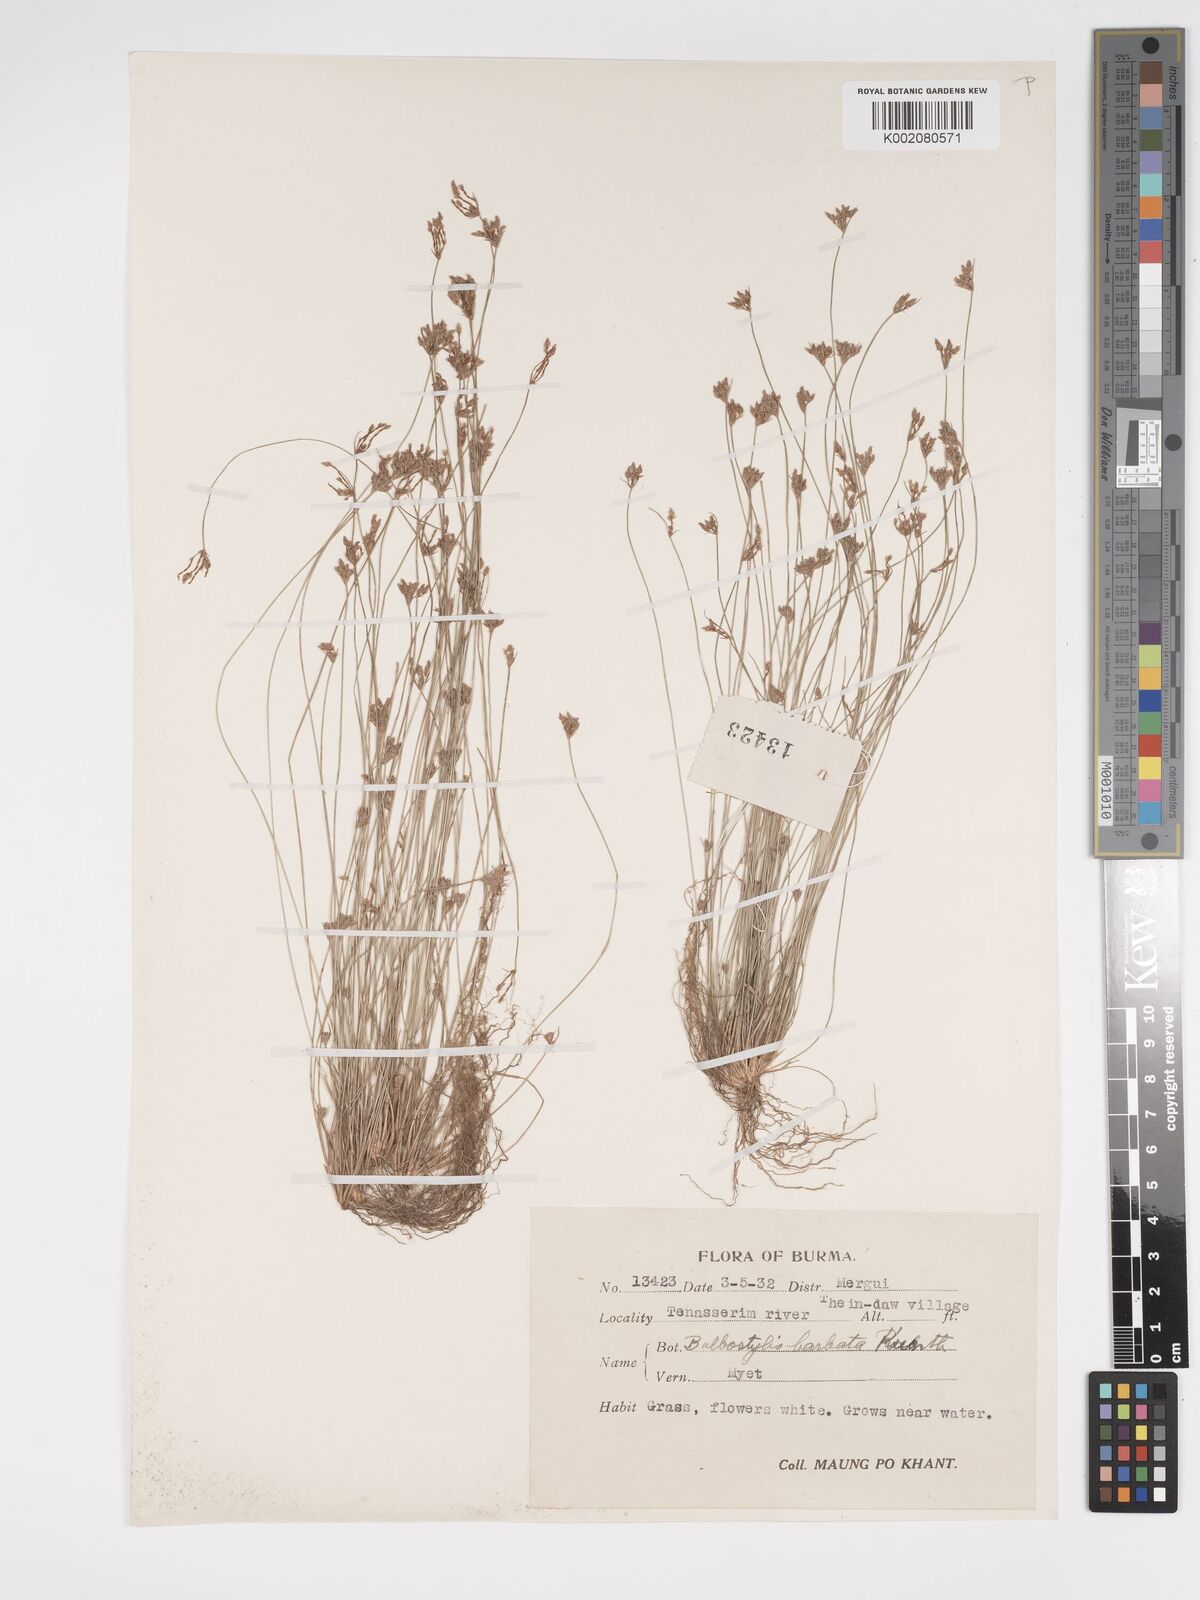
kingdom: Plantae
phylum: Tracheophyta
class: Liliopsida
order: Poales
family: Cyperaceae
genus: Bulbostylis
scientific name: Bulbostylis thouarsii
